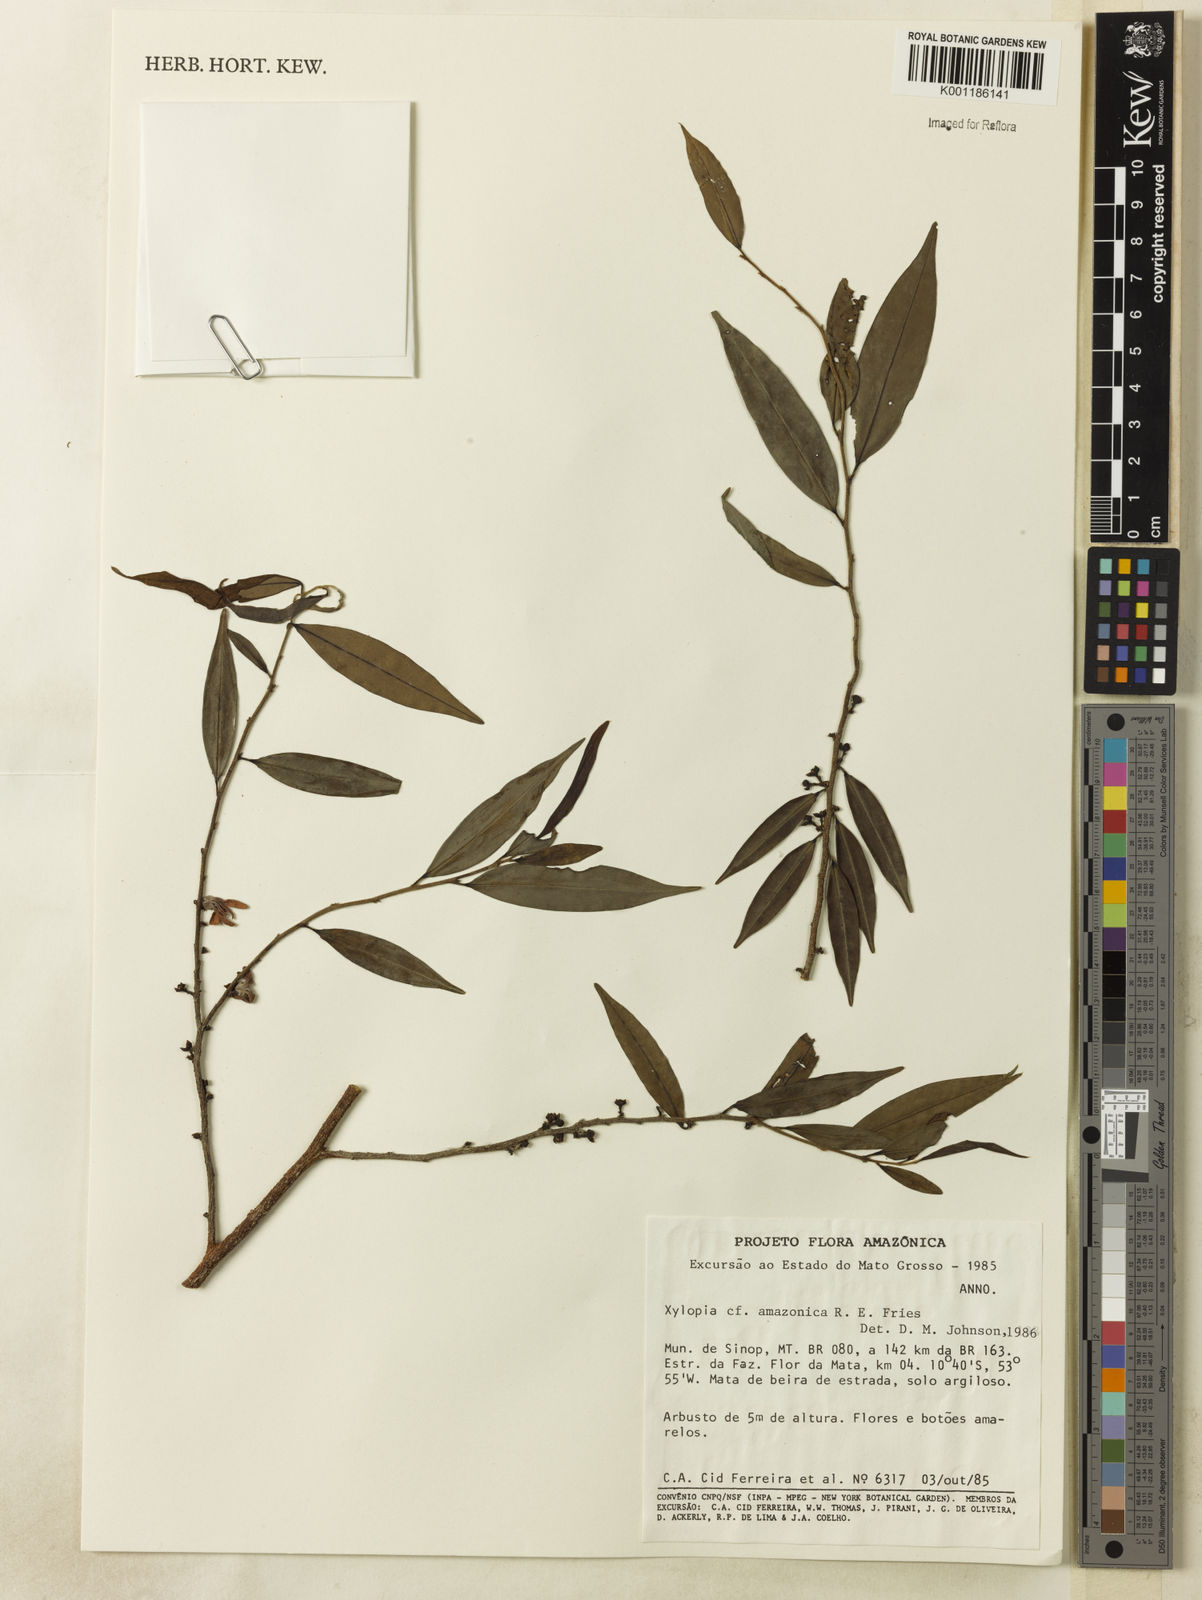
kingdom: Plantae
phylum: Tracheophyta
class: Magnoliopsida
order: Magnoliales
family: Annonaceae
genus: Xylopia
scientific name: Xylopia amazonica
